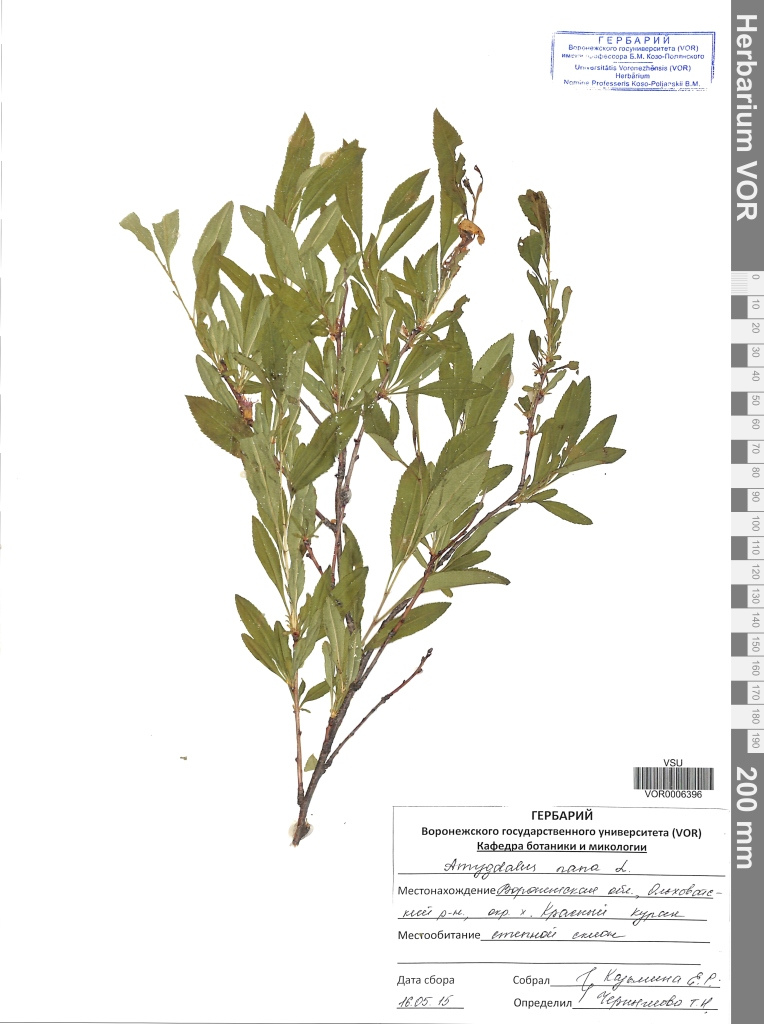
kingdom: Plantae
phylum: Tracheophyta
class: Magnoliopsida
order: Rosales
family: Rosaceae
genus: Prunus
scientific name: Prunus tenella
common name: Dwarf russian almond
